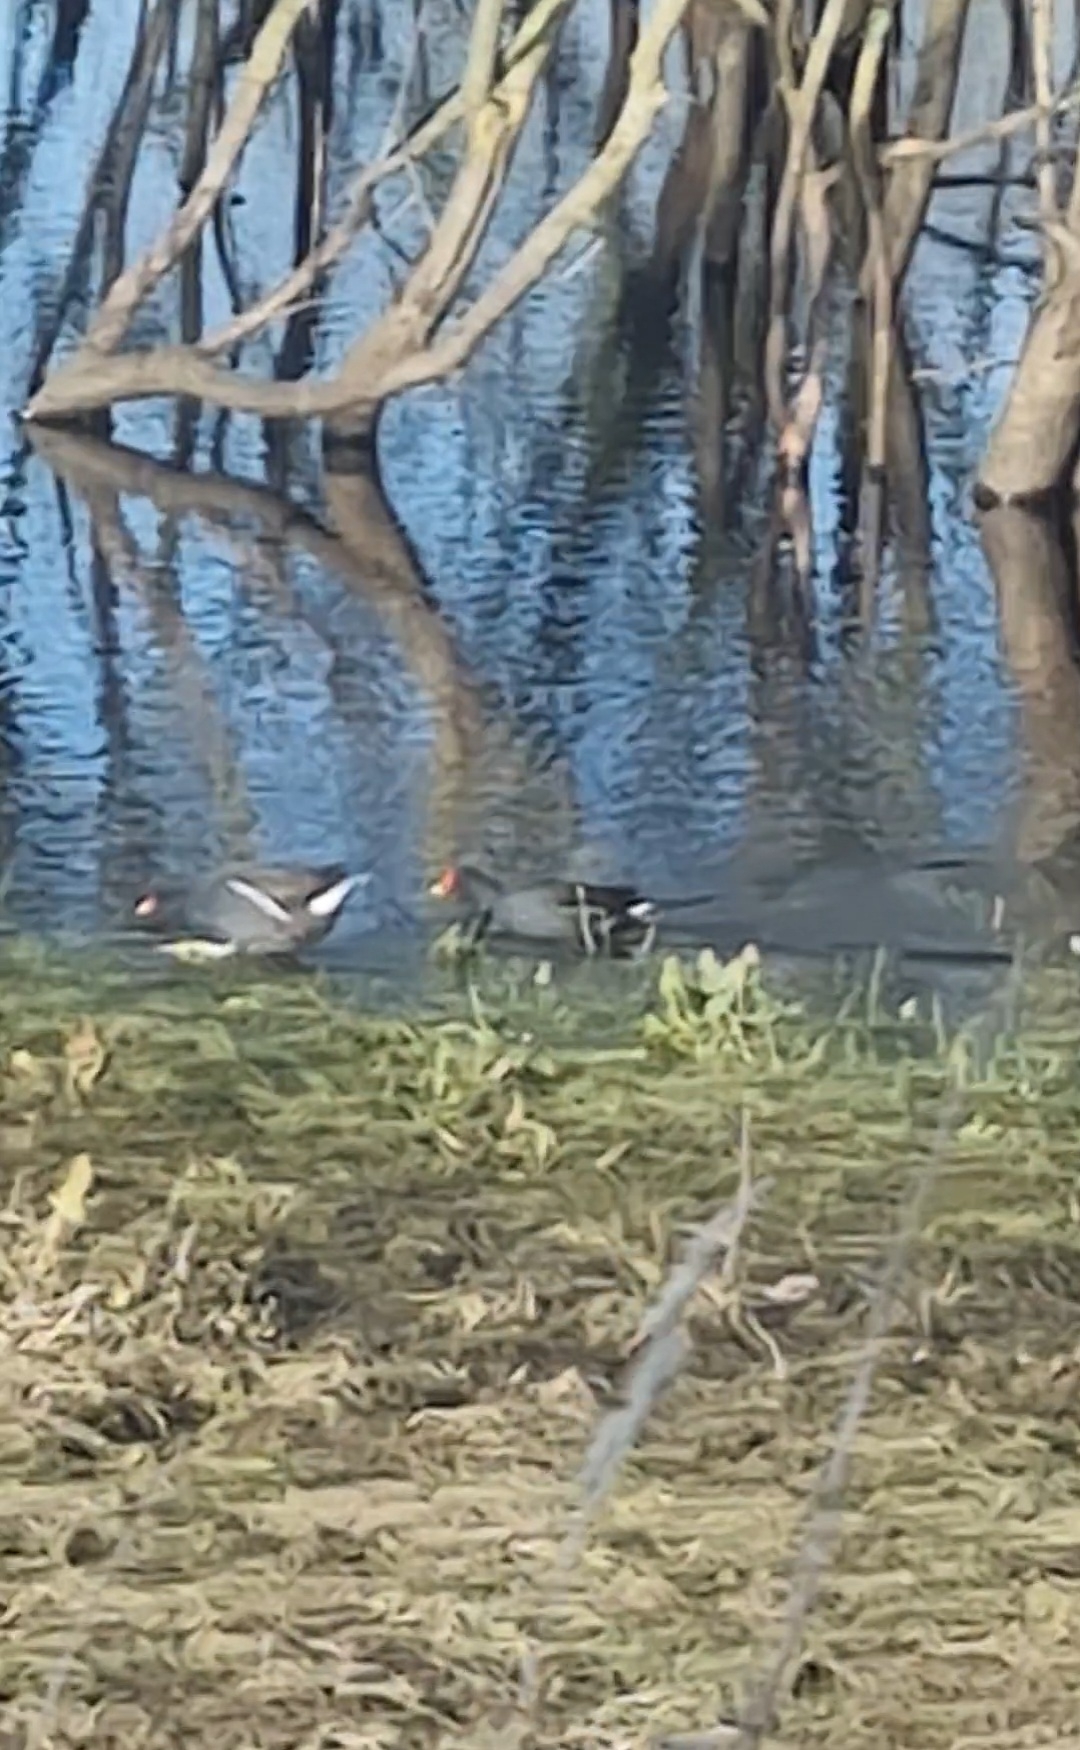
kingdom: Animalia
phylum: Chordata
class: Aves
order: Gruiformes
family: Rallidae
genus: Gallinula
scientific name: Gallinula chloropus
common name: Grønbenet rørhøne
